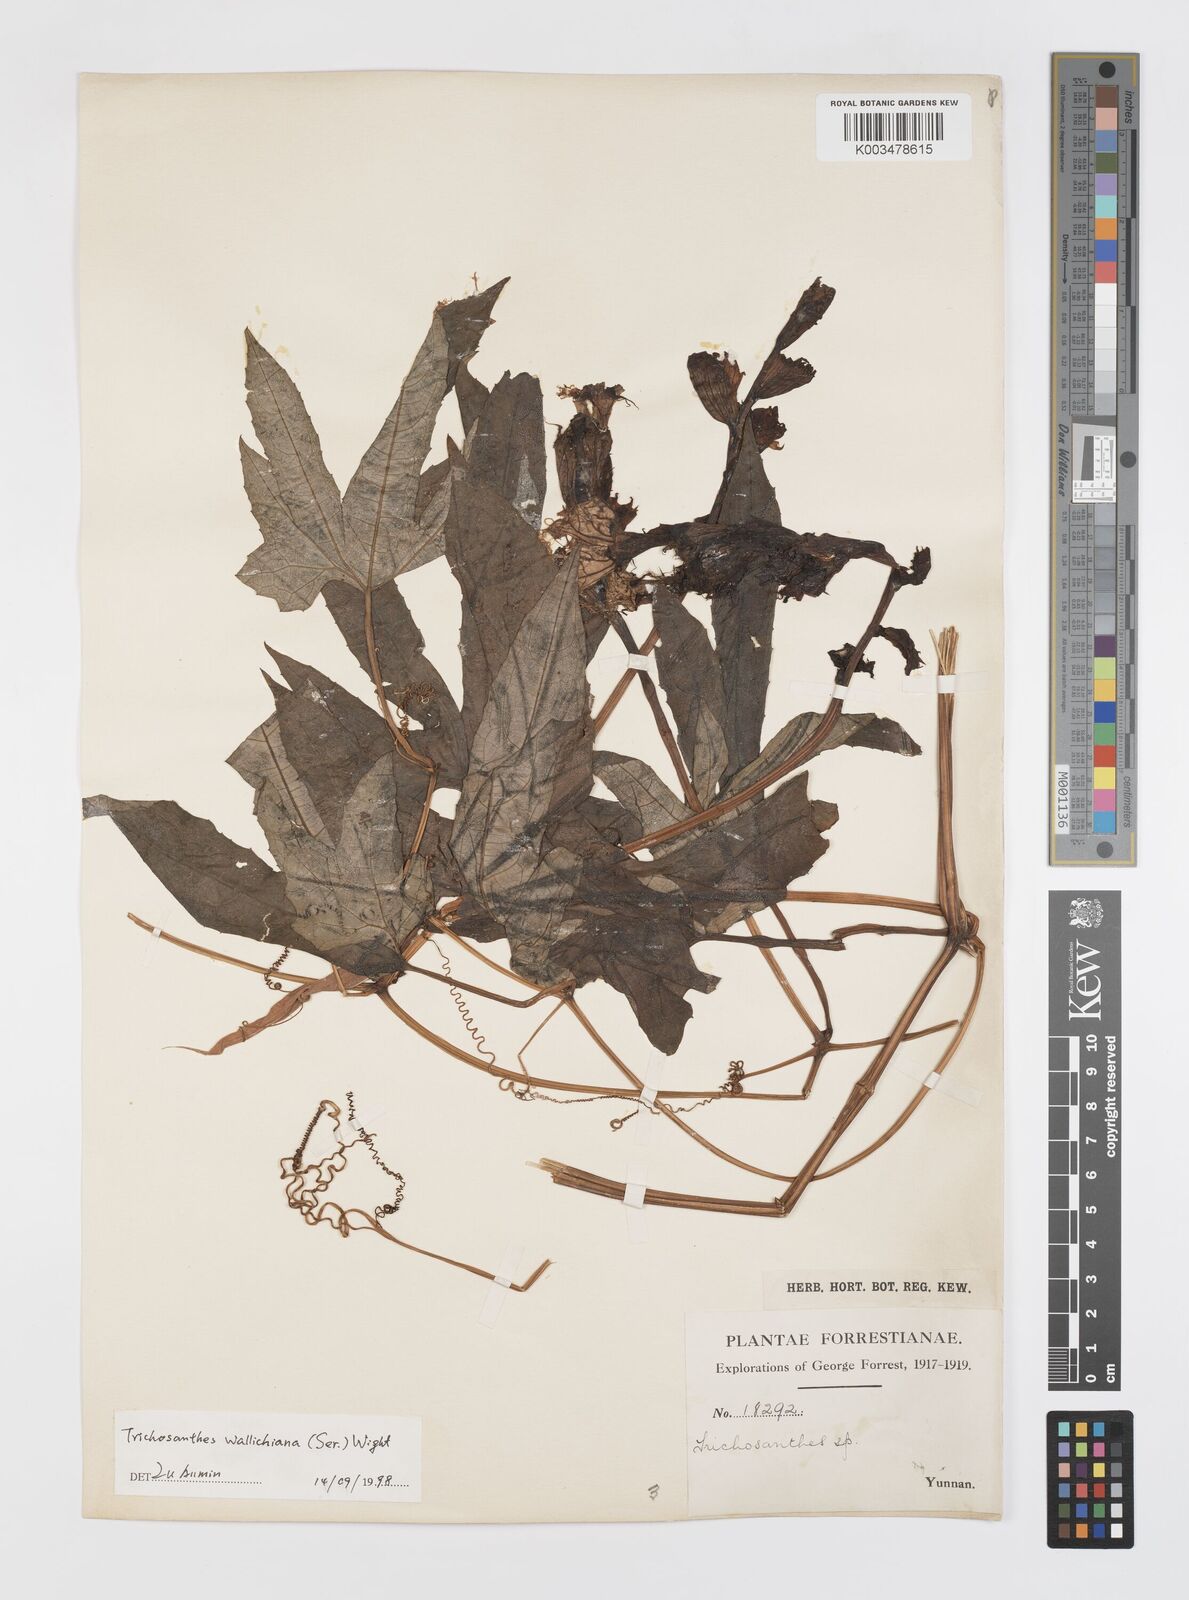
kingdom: Plantae
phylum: Tracheophyta
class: Magnoliopsida
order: Cucurbitales
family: Cucurbitaceae
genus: Trichosanthes
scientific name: Trichosanthes wallichiana
